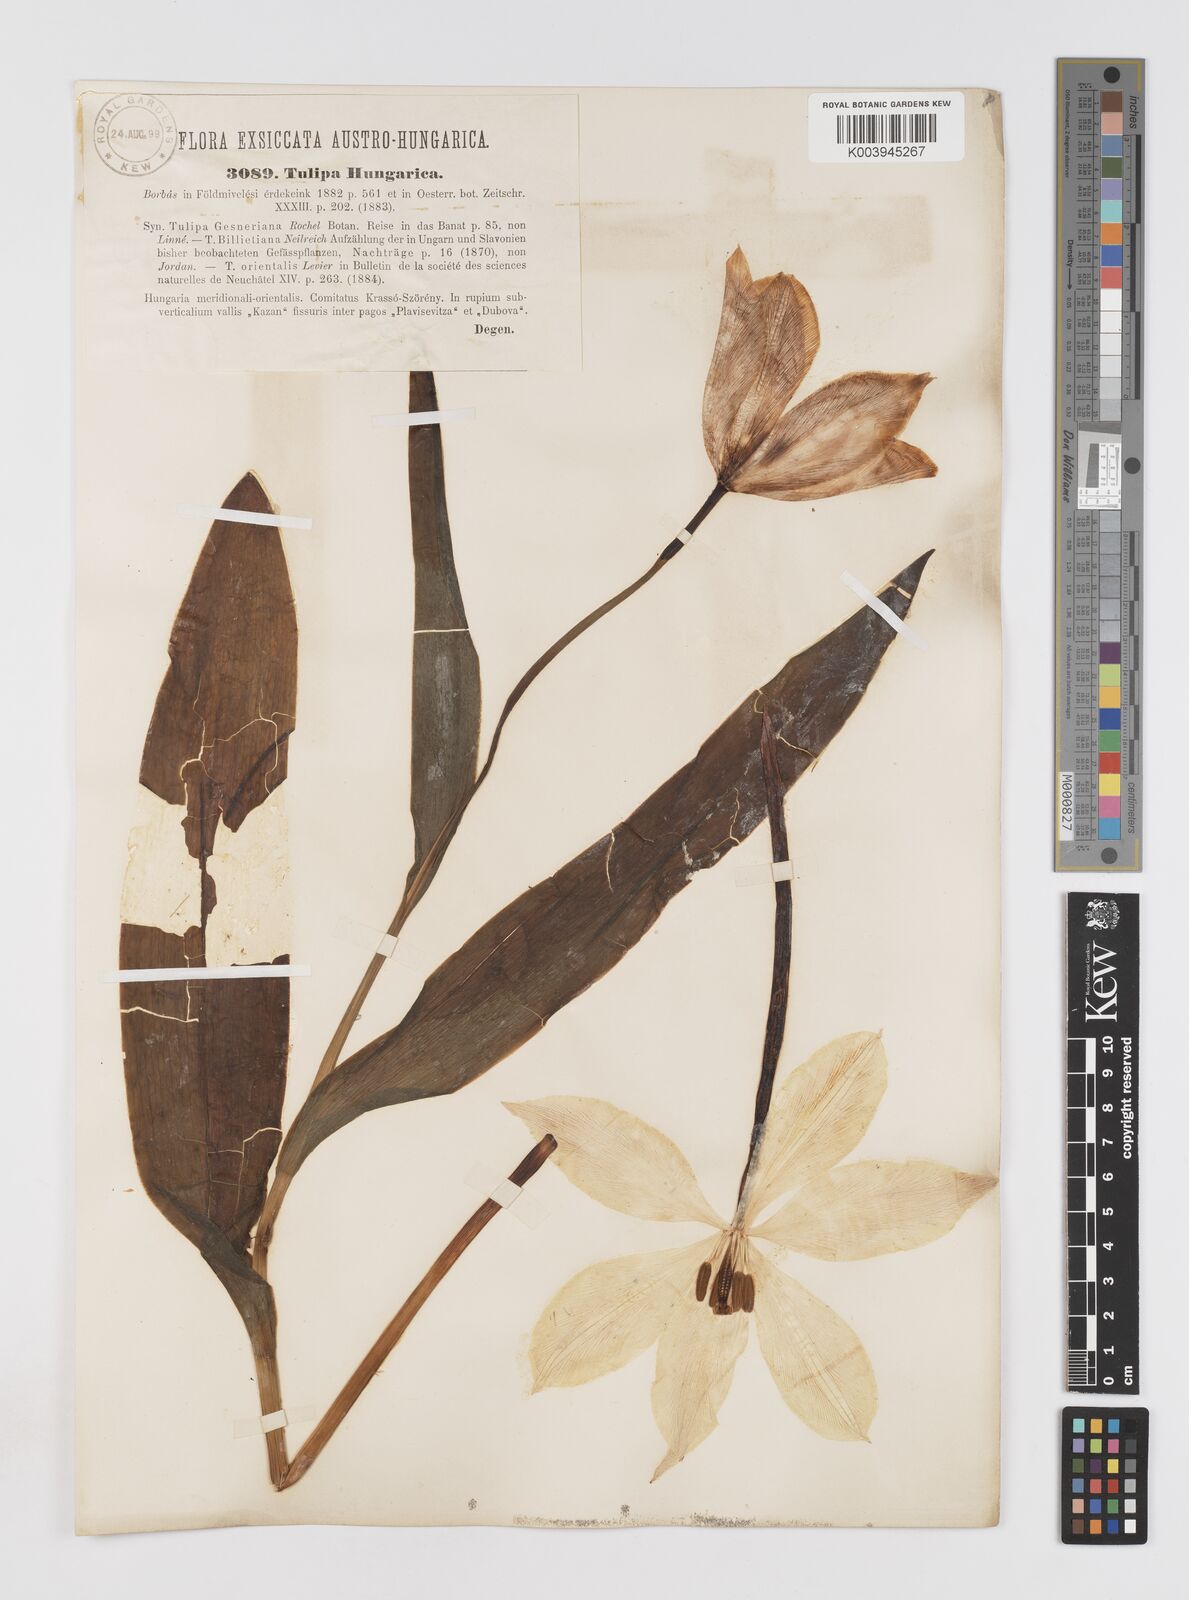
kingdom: Plantae
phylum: Tracheophyta
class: Liliopsida
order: Liliales
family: Liliaceae
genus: Tulipa
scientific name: Tulipa hungarica
